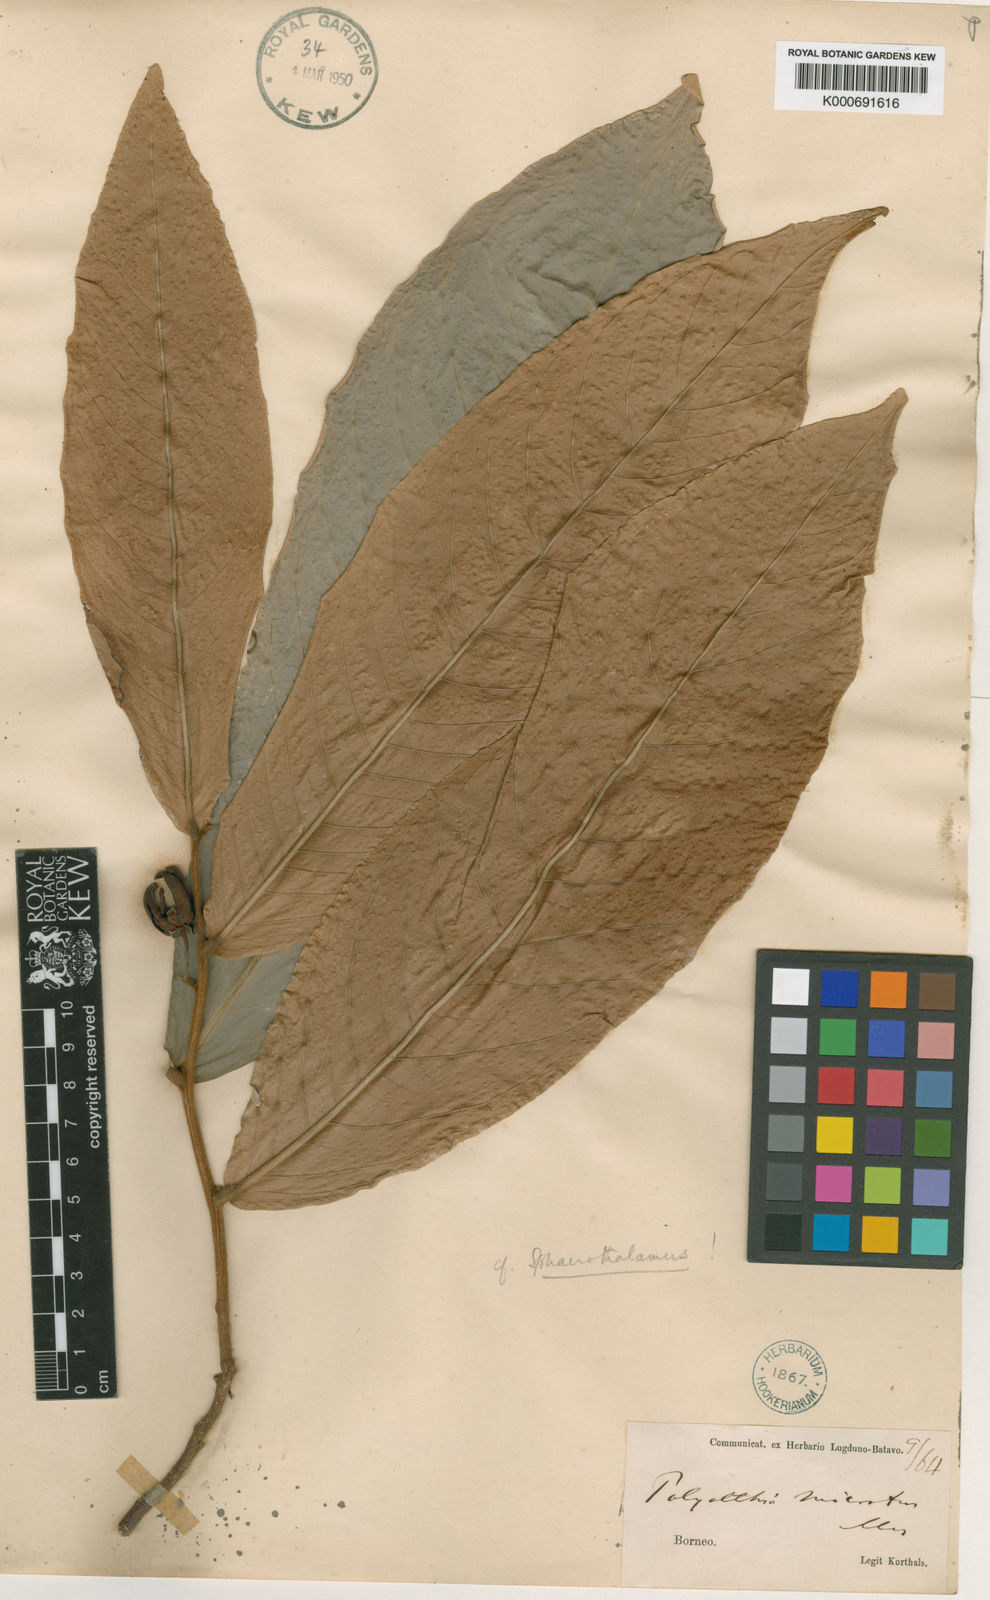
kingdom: Plantae
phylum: Tracheophyta
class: Magnoliopsida
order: Magnoliales
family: Annonaceae
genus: Polyalthia
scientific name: Polyalthia microtus
